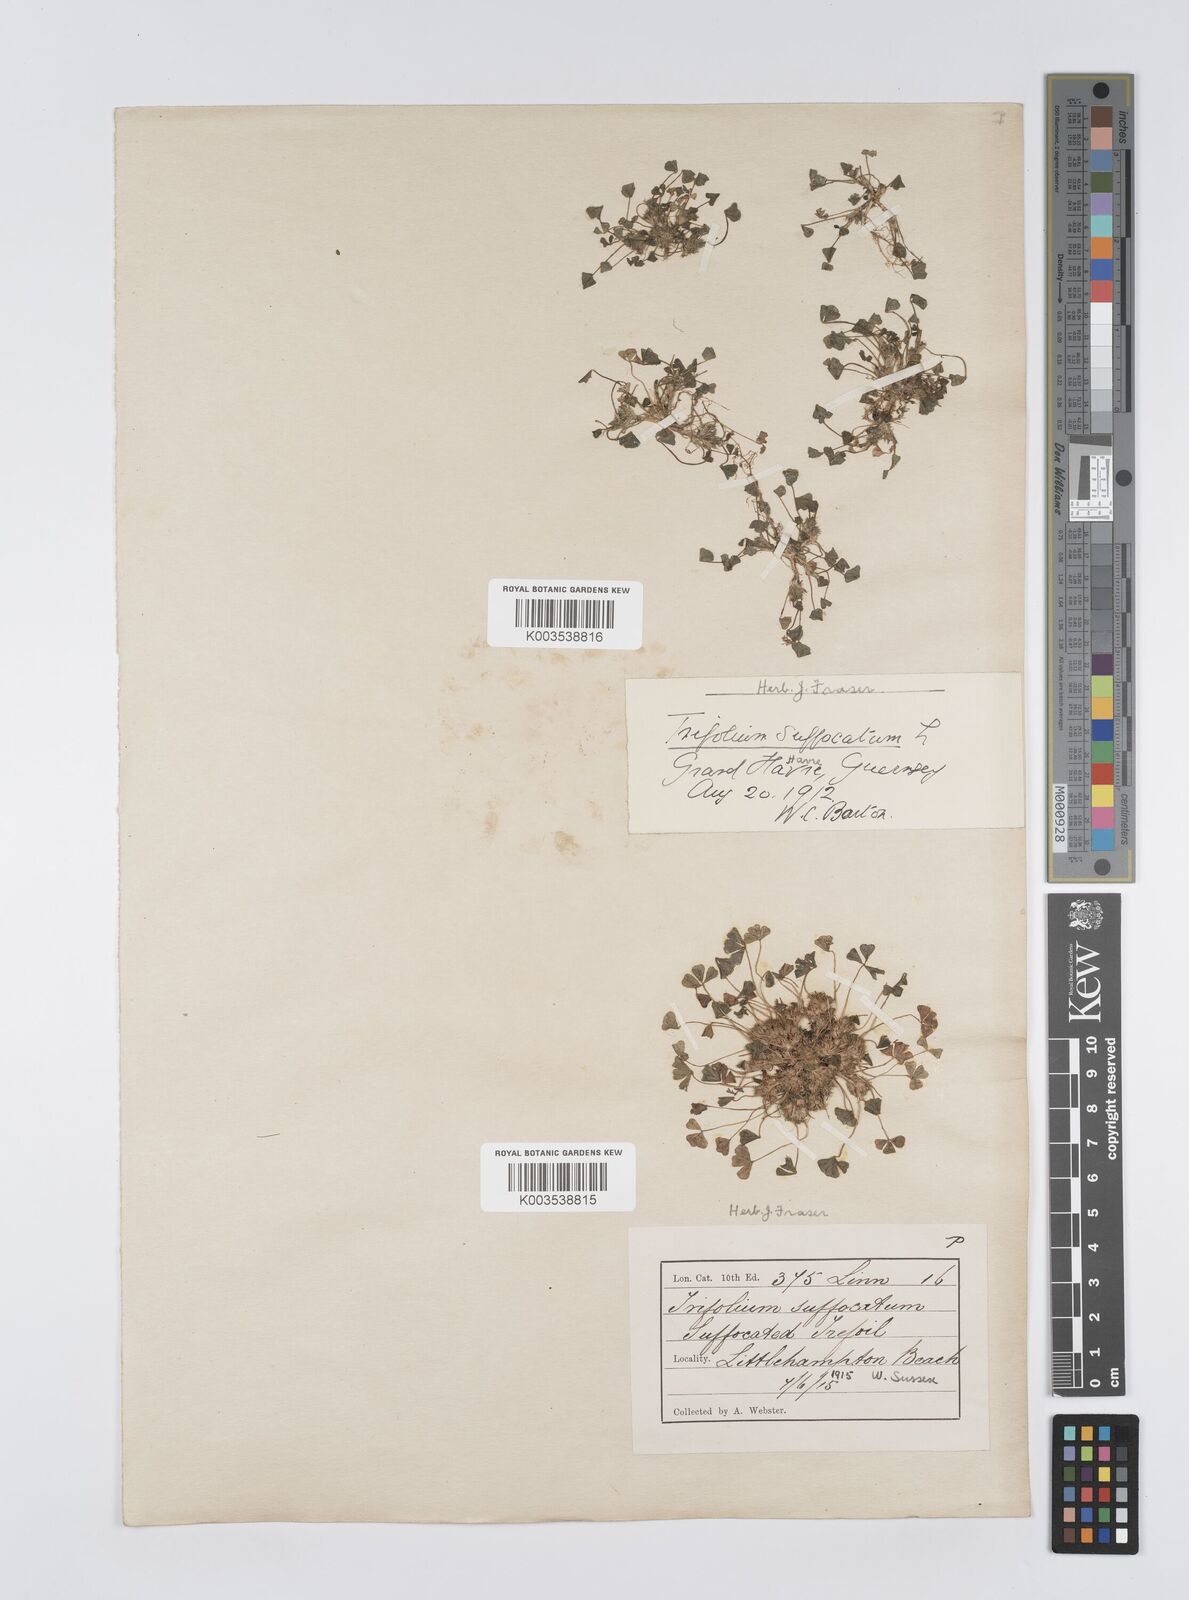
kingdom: Plantae
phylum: Tracheophyta
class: Magnoliopsida
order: Fabales
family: Fabaceae
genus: Trifolium
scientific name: Trifolium suffocatum
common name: Suffocated clover
